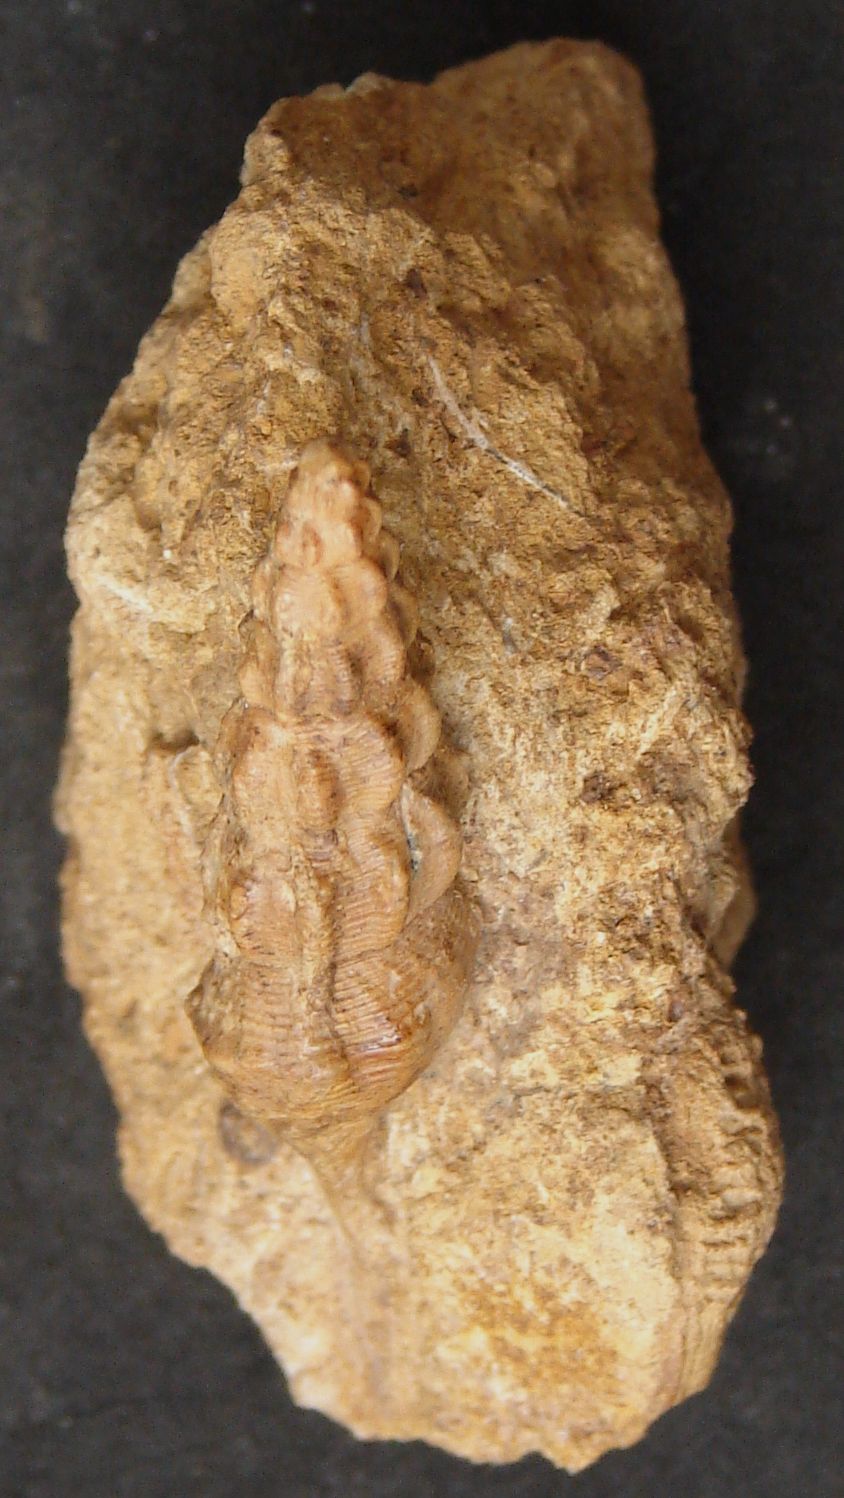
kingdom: Animalia
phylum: Mollusca
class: Gastropoda
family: Nerineidae
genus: Phaneroptyxis
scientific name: Phaneroptyxis
